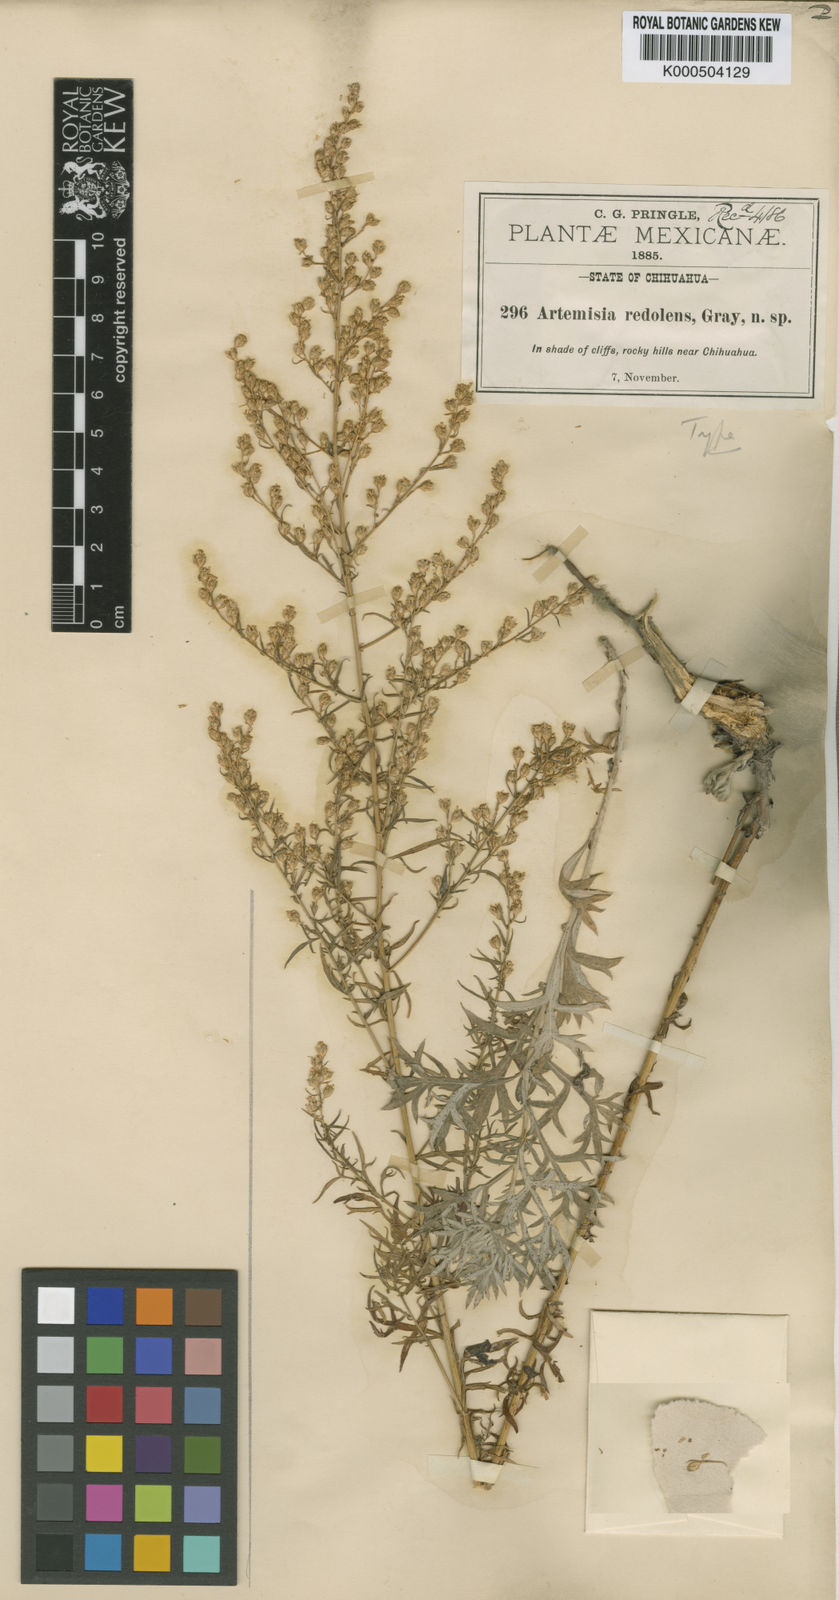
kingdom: Plantae
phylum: Tracheophyta
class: Magnoliopsida
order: Asterales
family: Asteraceae
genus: Artemisia
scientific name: Artemisia ludoviciana
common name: Western mugwort
